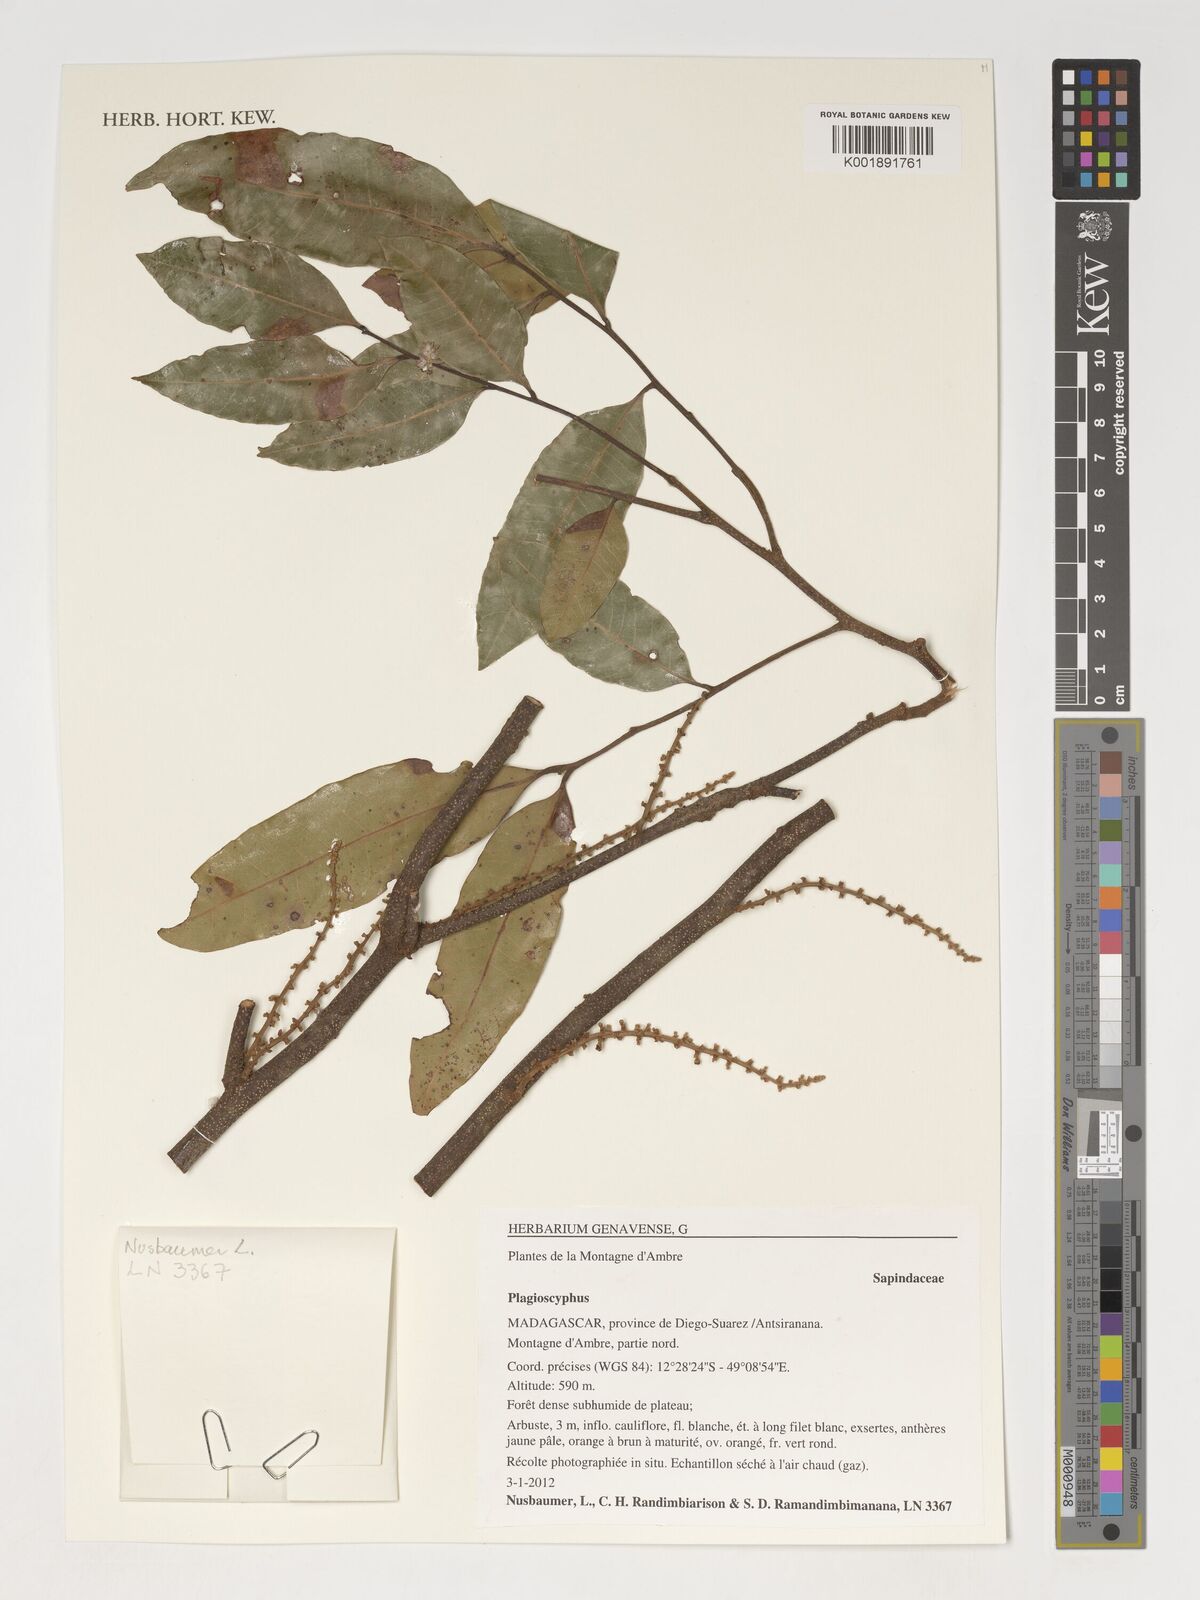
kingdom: Plantae
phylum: Tracheophyta
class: Magnoliopsida
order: Sapindales
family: Sapindaceae
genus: Plagioscyphus
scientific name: Plagioscyphus
